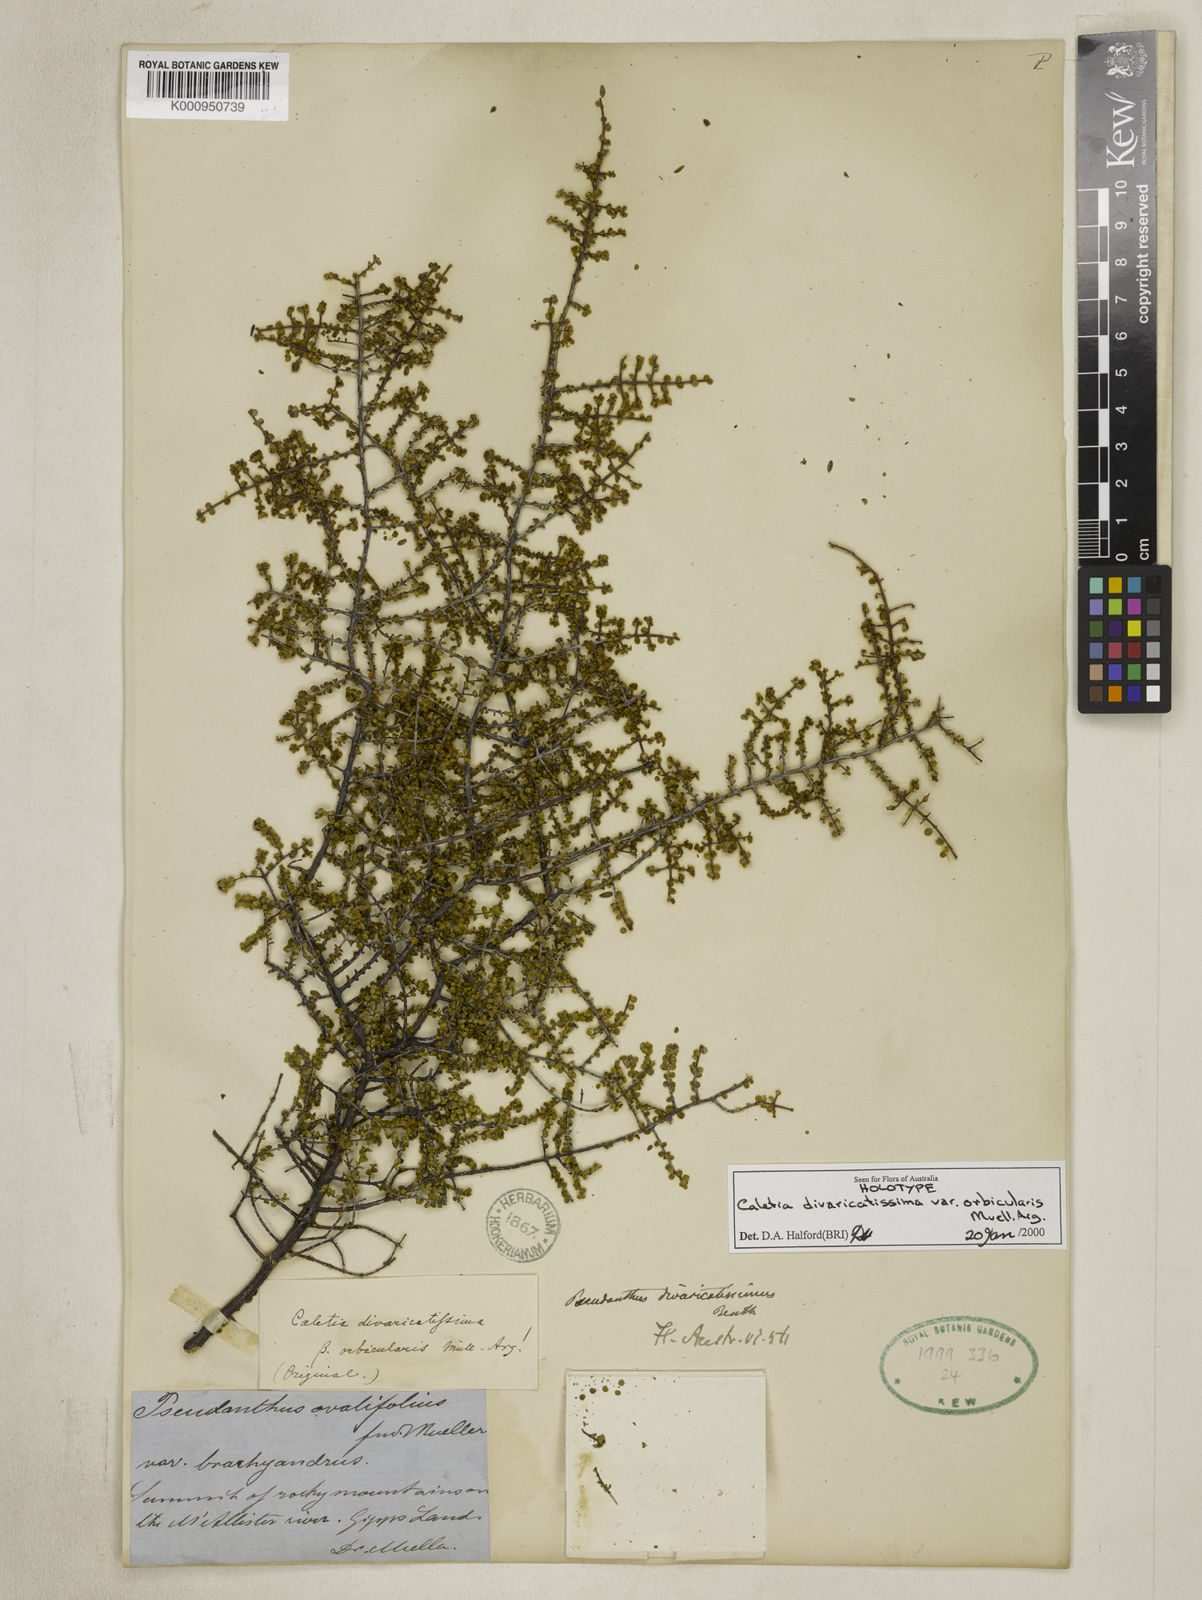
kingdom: Plantae
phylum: Tracheophyta
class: Magnoliopsida
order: Malpighiales
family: Picrodendraceae
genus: Pseudanthus
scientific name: Pseudanthus
